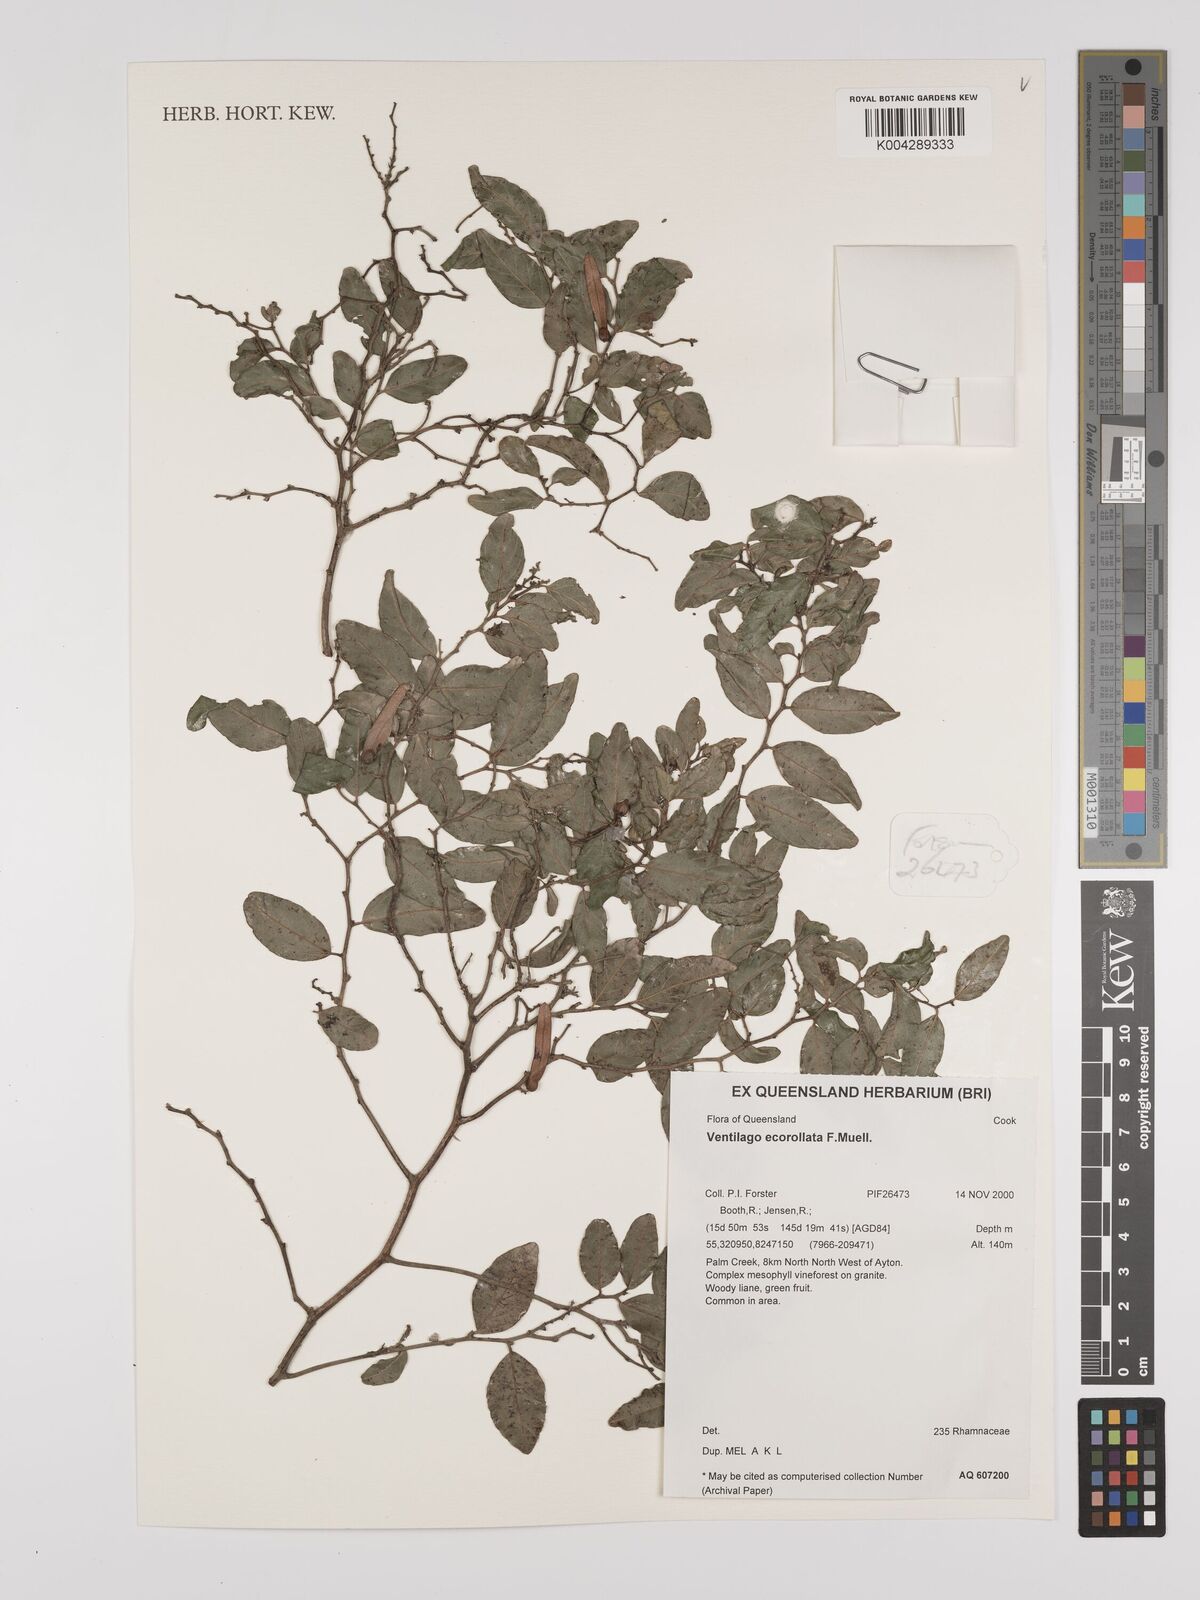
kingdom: Plantae
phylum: Tracheophyta
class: Magnoliopsida
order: Rosales
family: Rhamnaceae
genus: Ventilago
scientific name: Ventilago ecorollata
